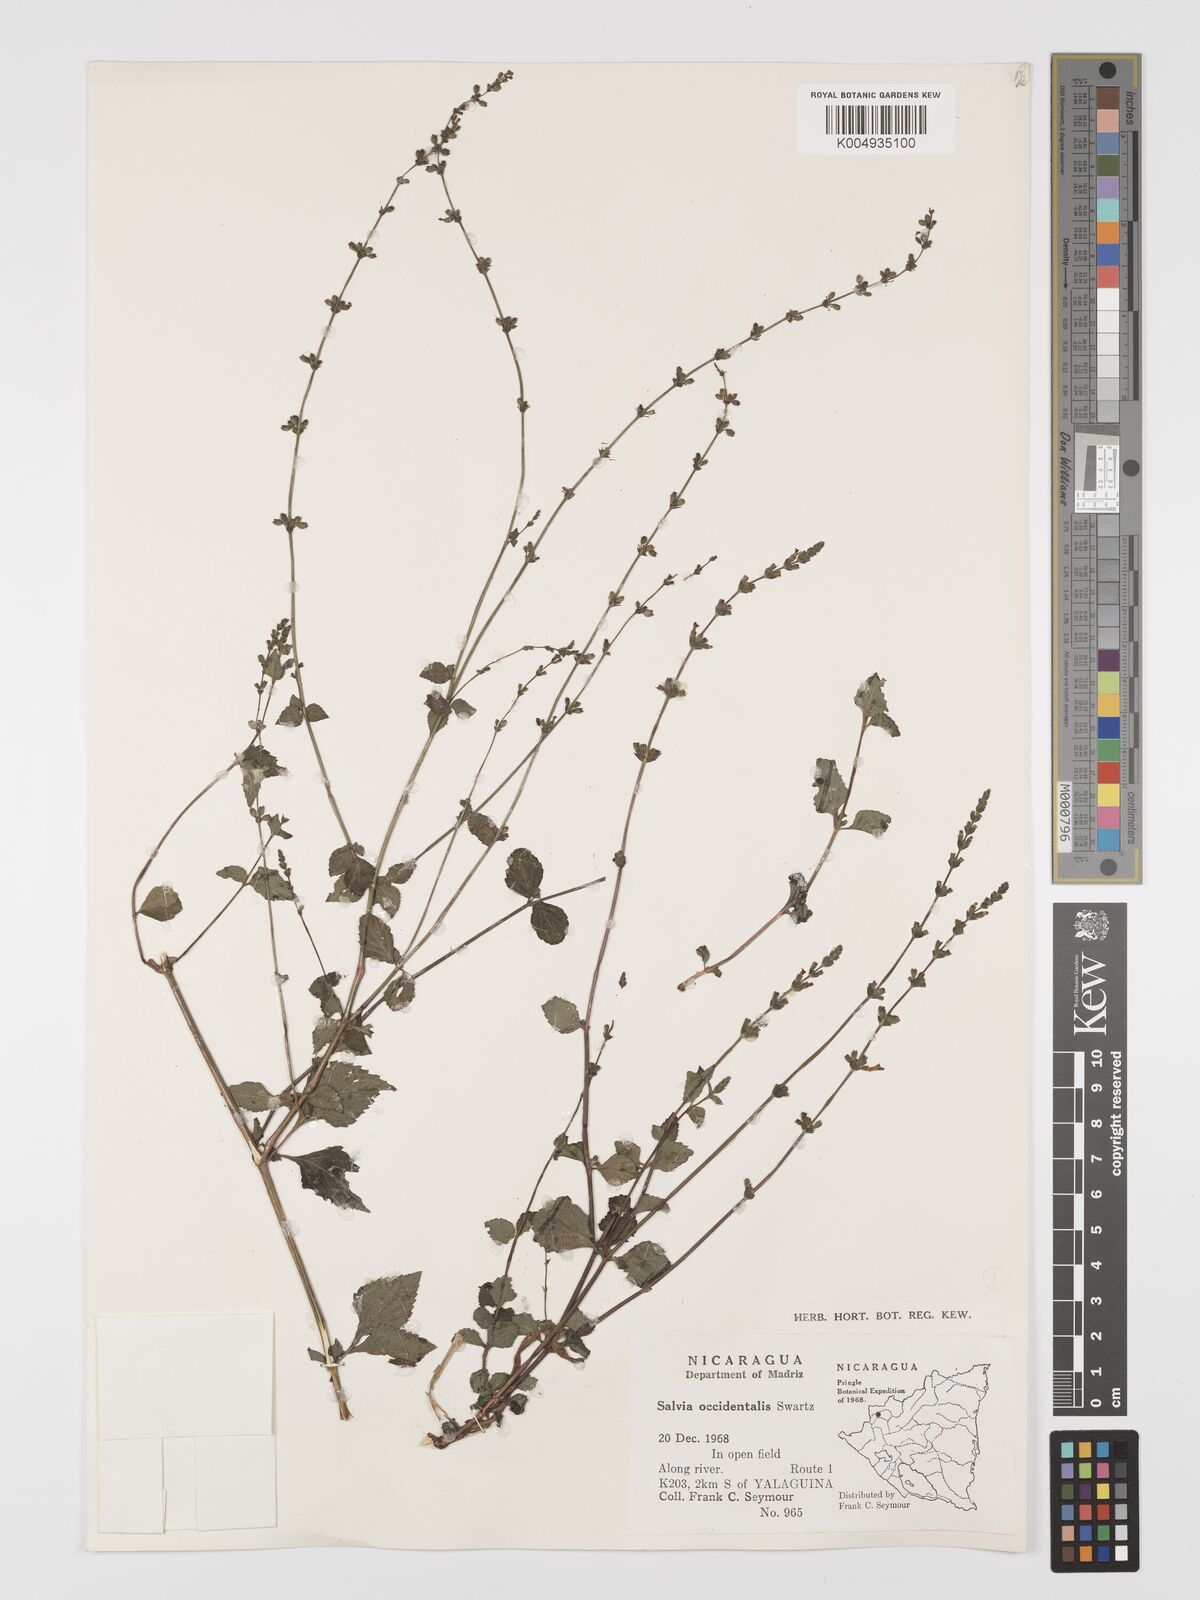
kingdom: Plantae
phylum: Tracheophyta
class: Magnoliopsida
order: Lamiales
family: Lamiaceae
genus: Salvia
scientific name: Salvia occidentalis
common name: West indian sage
